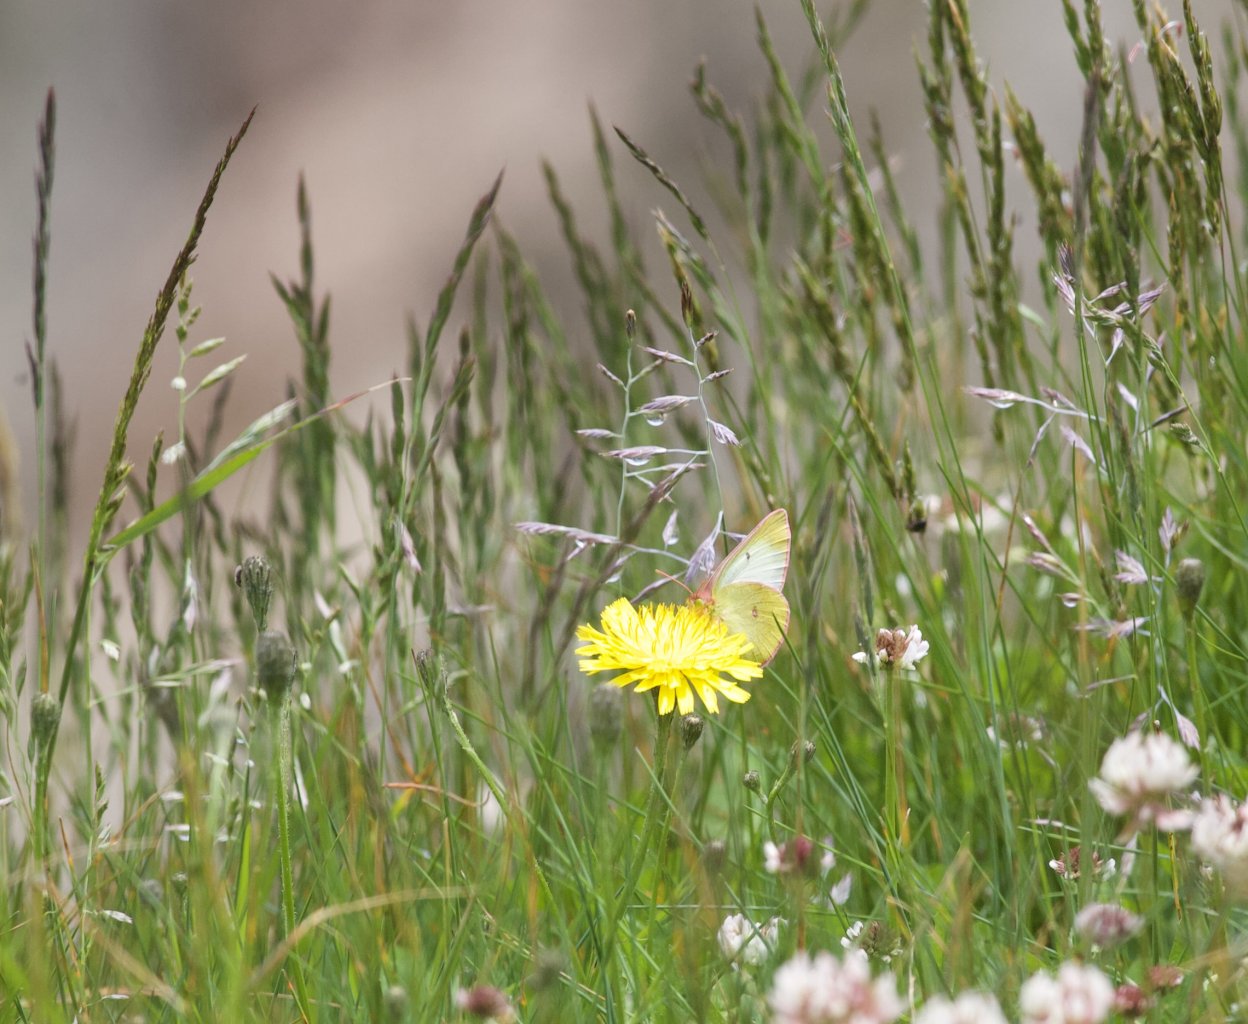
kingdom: Animalia
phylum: Arthropoda
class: Insecta
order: Lepidoptera
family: Pieridae
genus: Colias
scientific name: Colias interior
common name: Pink-edged Sulphur
